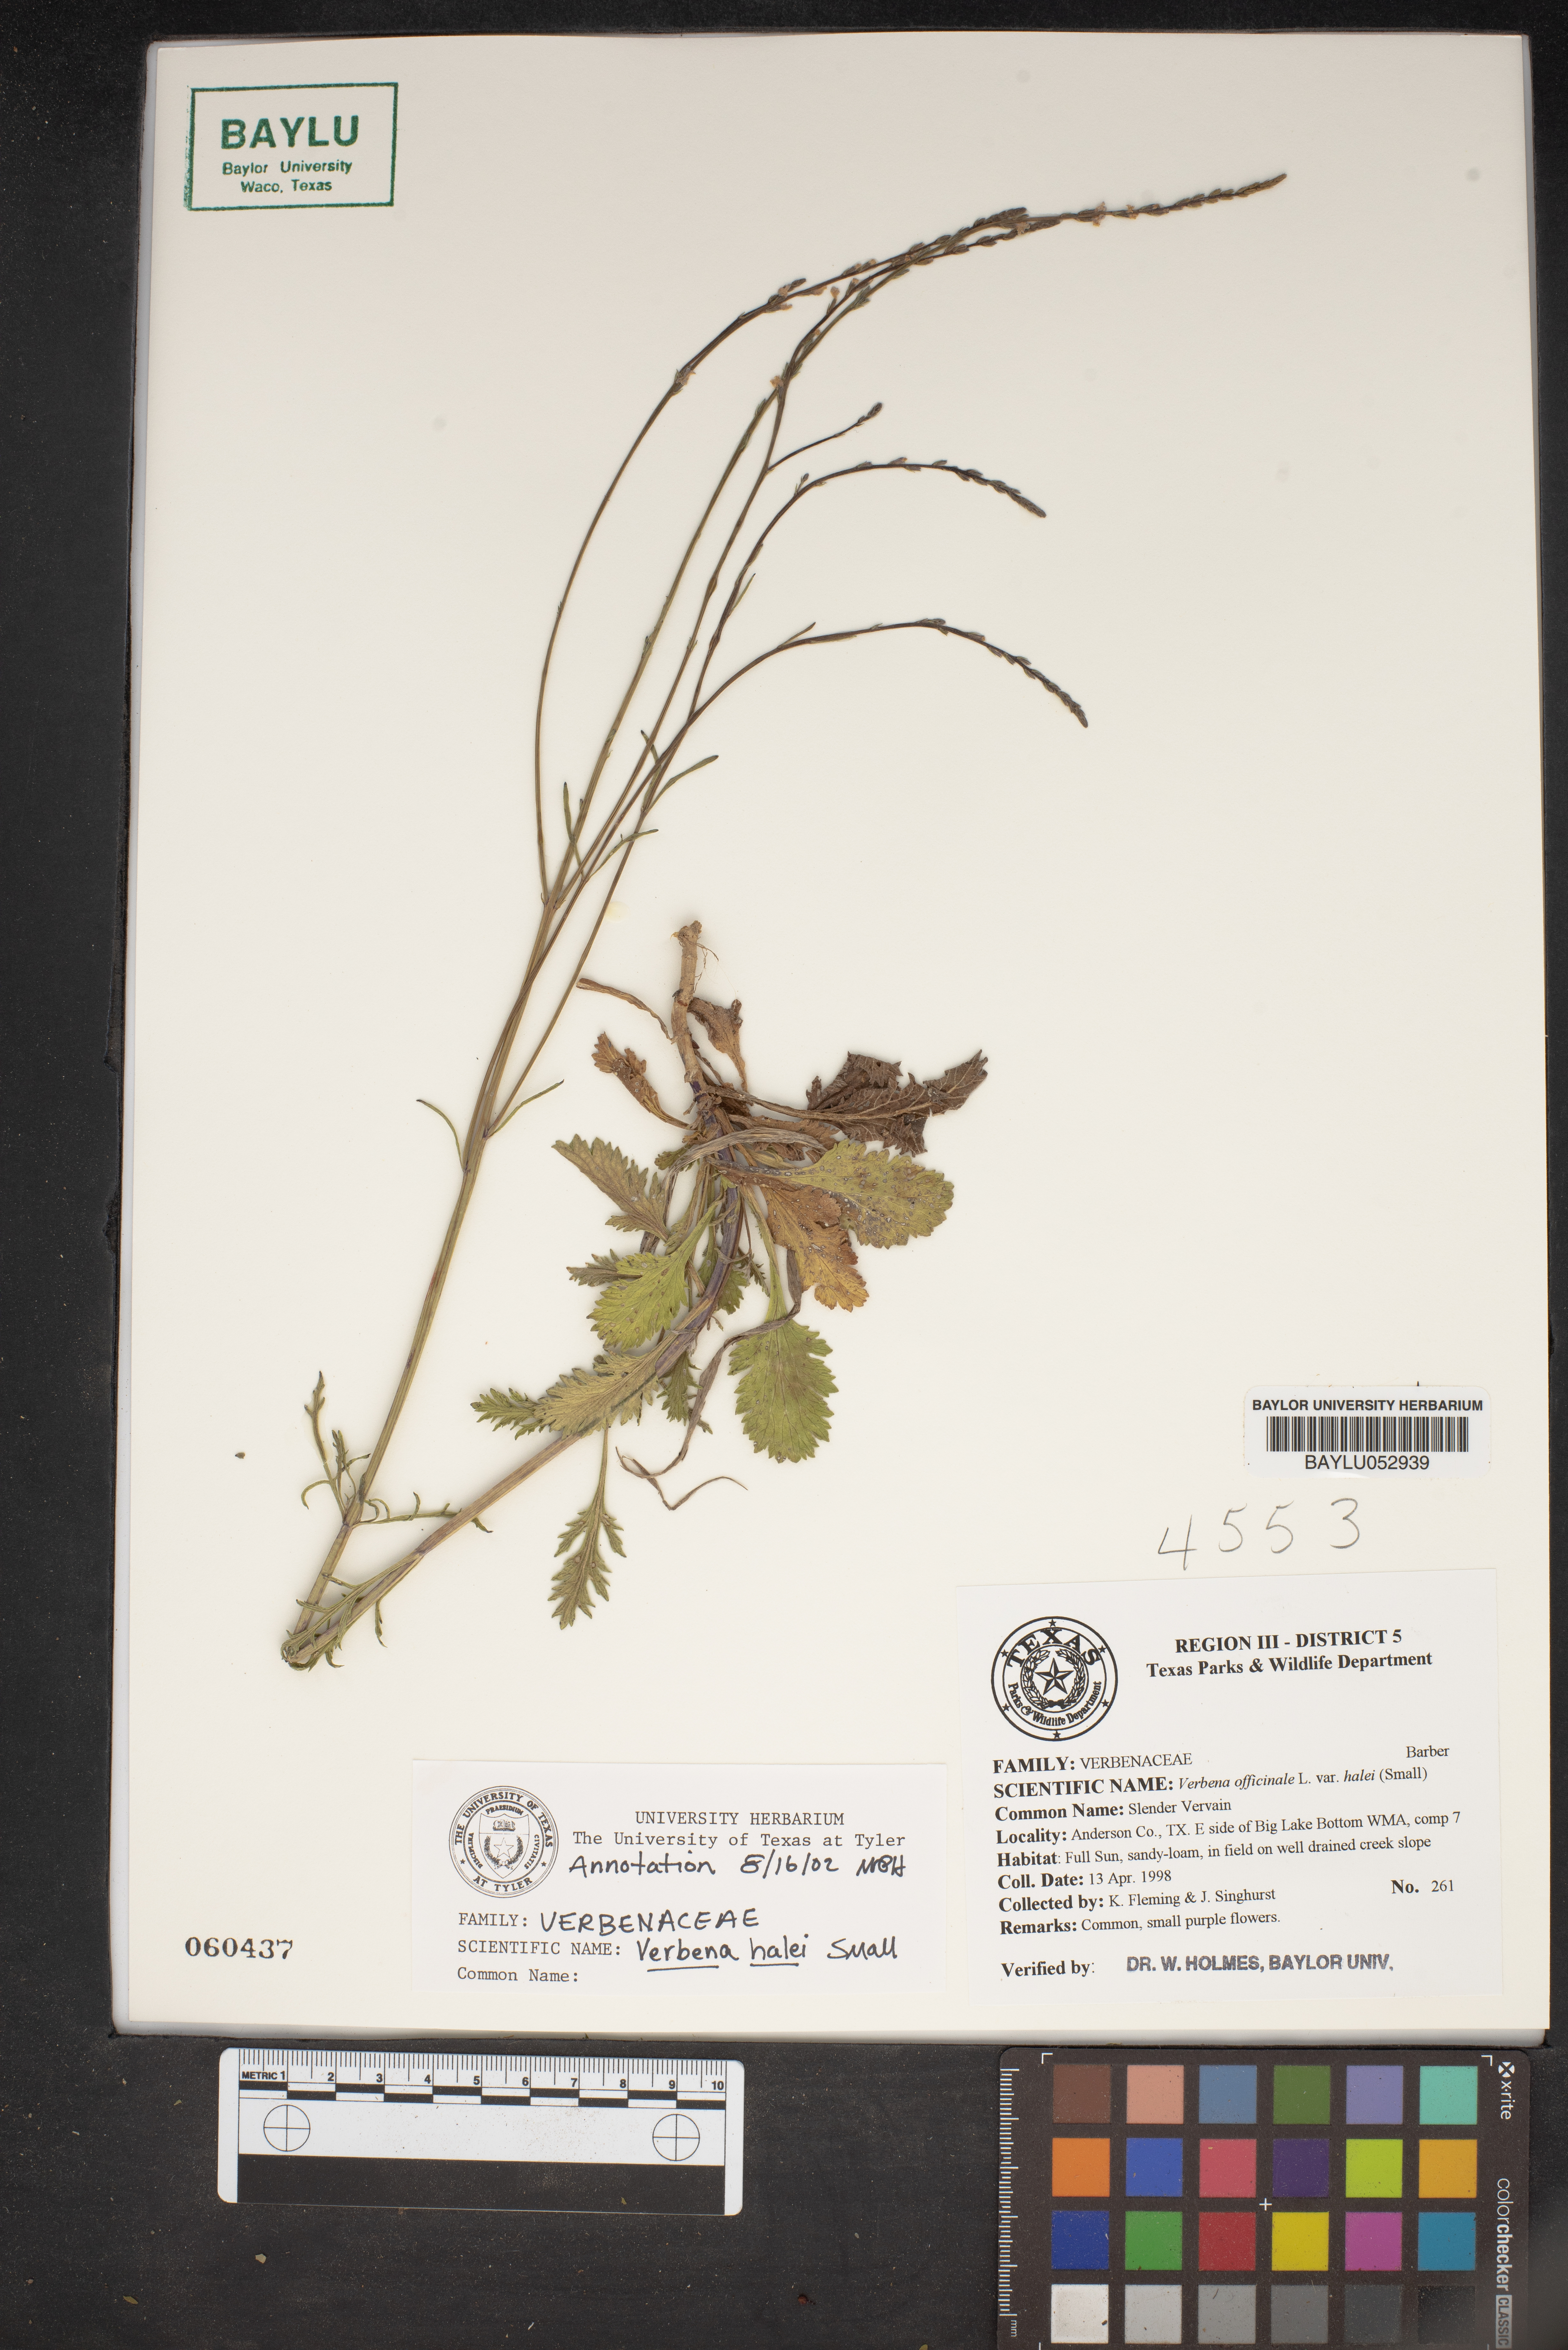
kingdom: Plantae
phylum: Tracheophyta
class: Magnoliopsida
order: Lamiales
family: Verbenaceae
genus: Verbena
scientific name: Verbena officinalis
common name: Vervain
